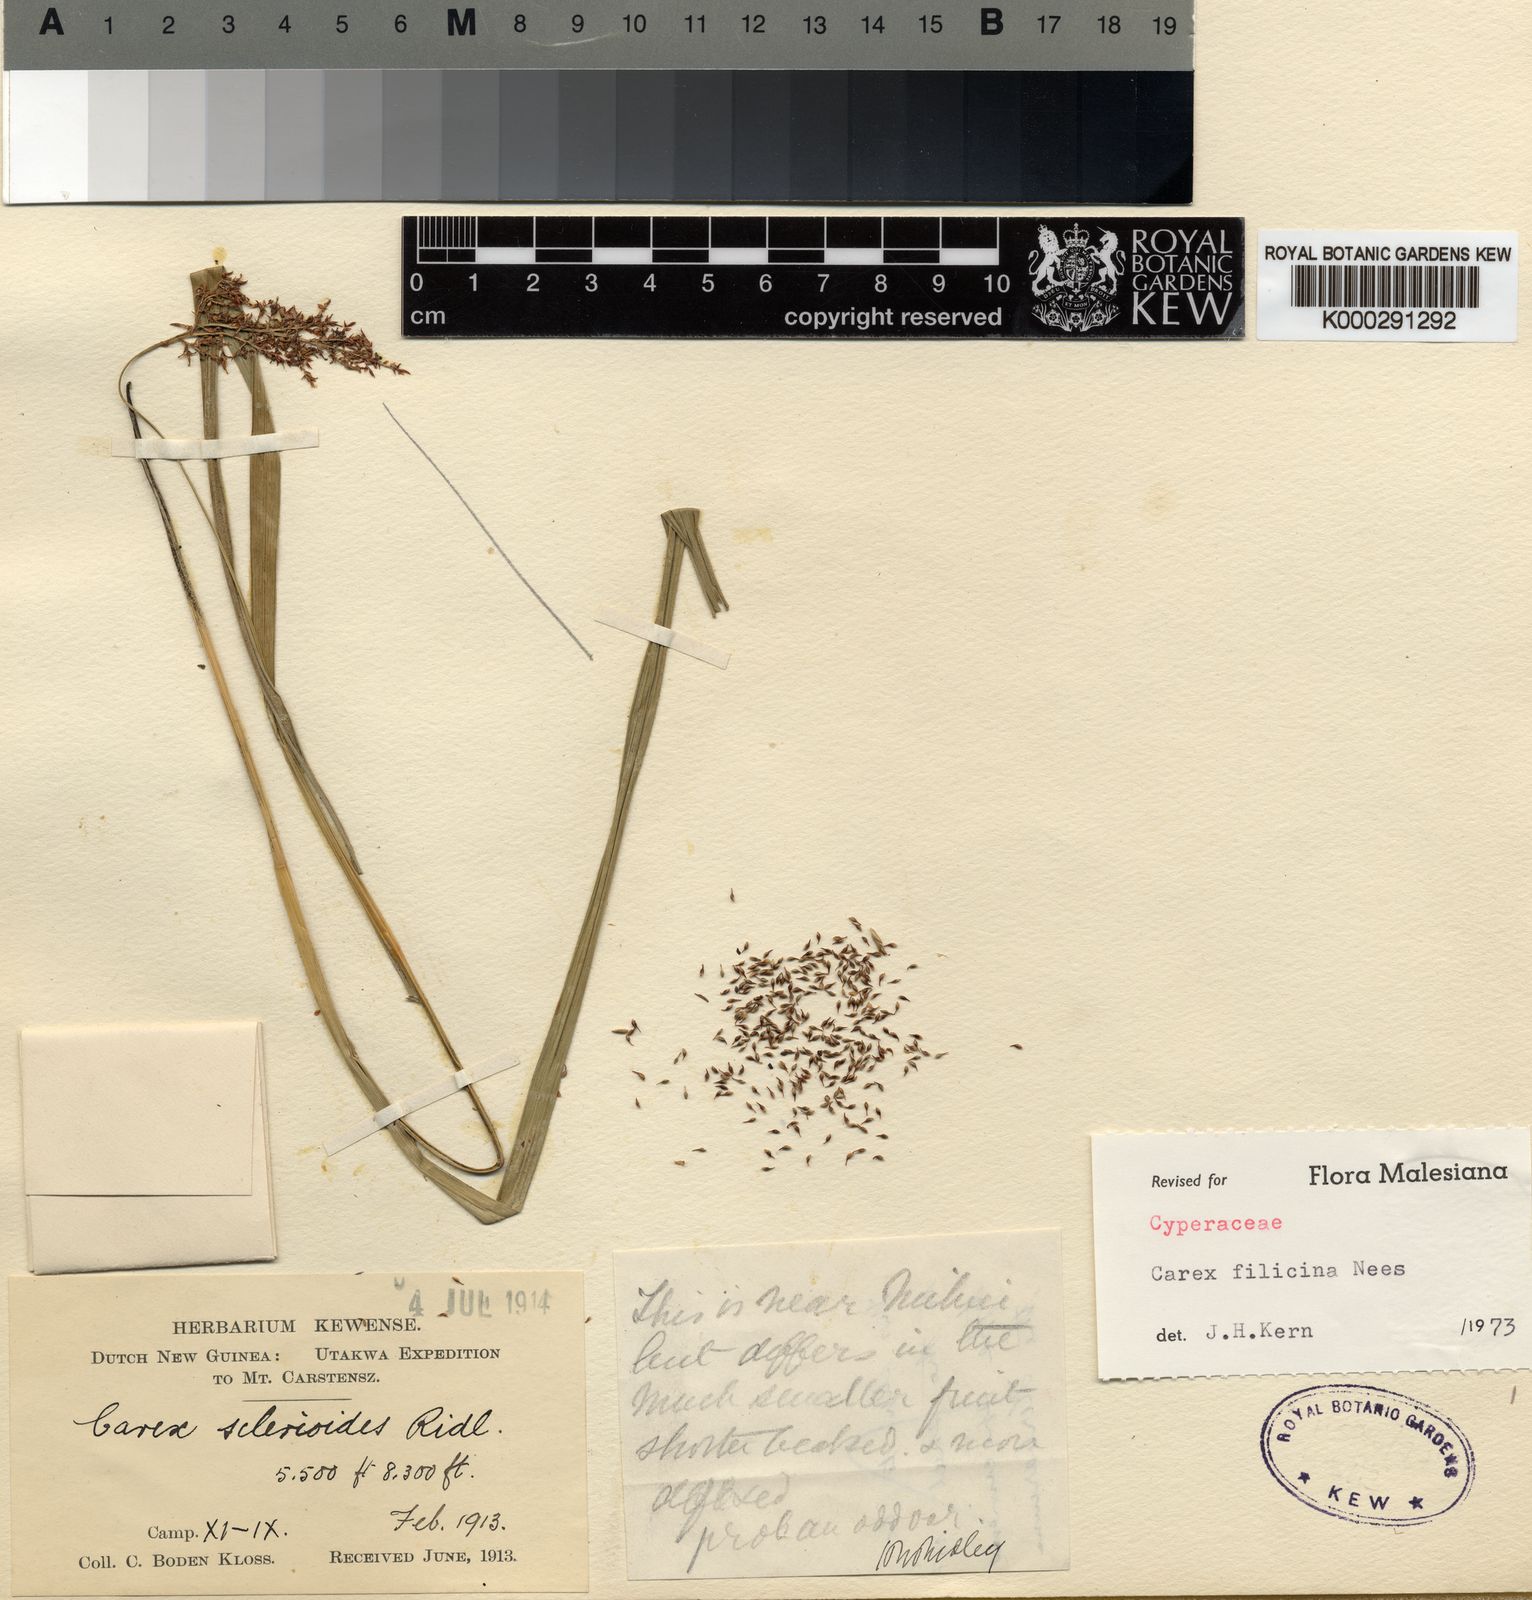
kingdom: Plantae
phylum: Tracheophyta
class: Liliopsida
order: Poales
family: Cyperaceae
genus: Carex
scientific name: Carex filicina
